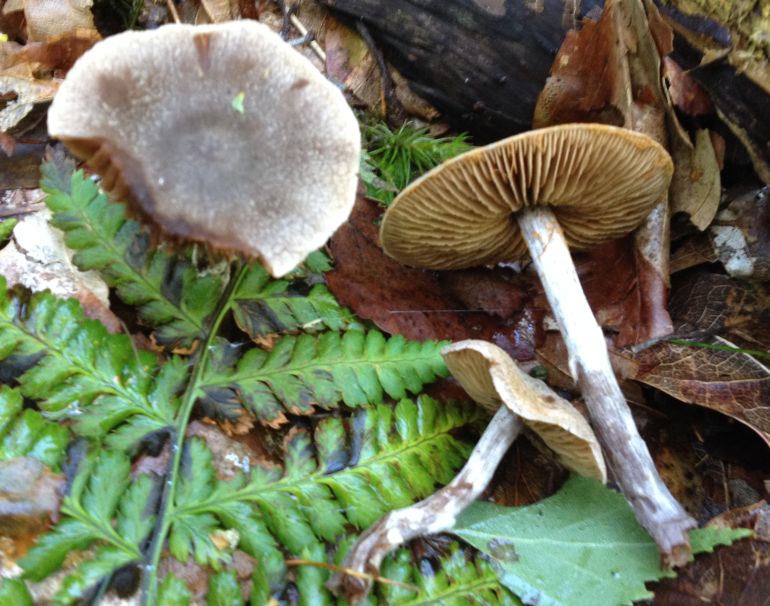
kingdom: Fungi
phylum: Basidiomycota
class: Agaricomycetes
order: Agaricales
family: Cortinariaceae
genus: Cortinarius
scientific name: Cortinarius hemitrichus
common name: hvidfnugget slørhat
